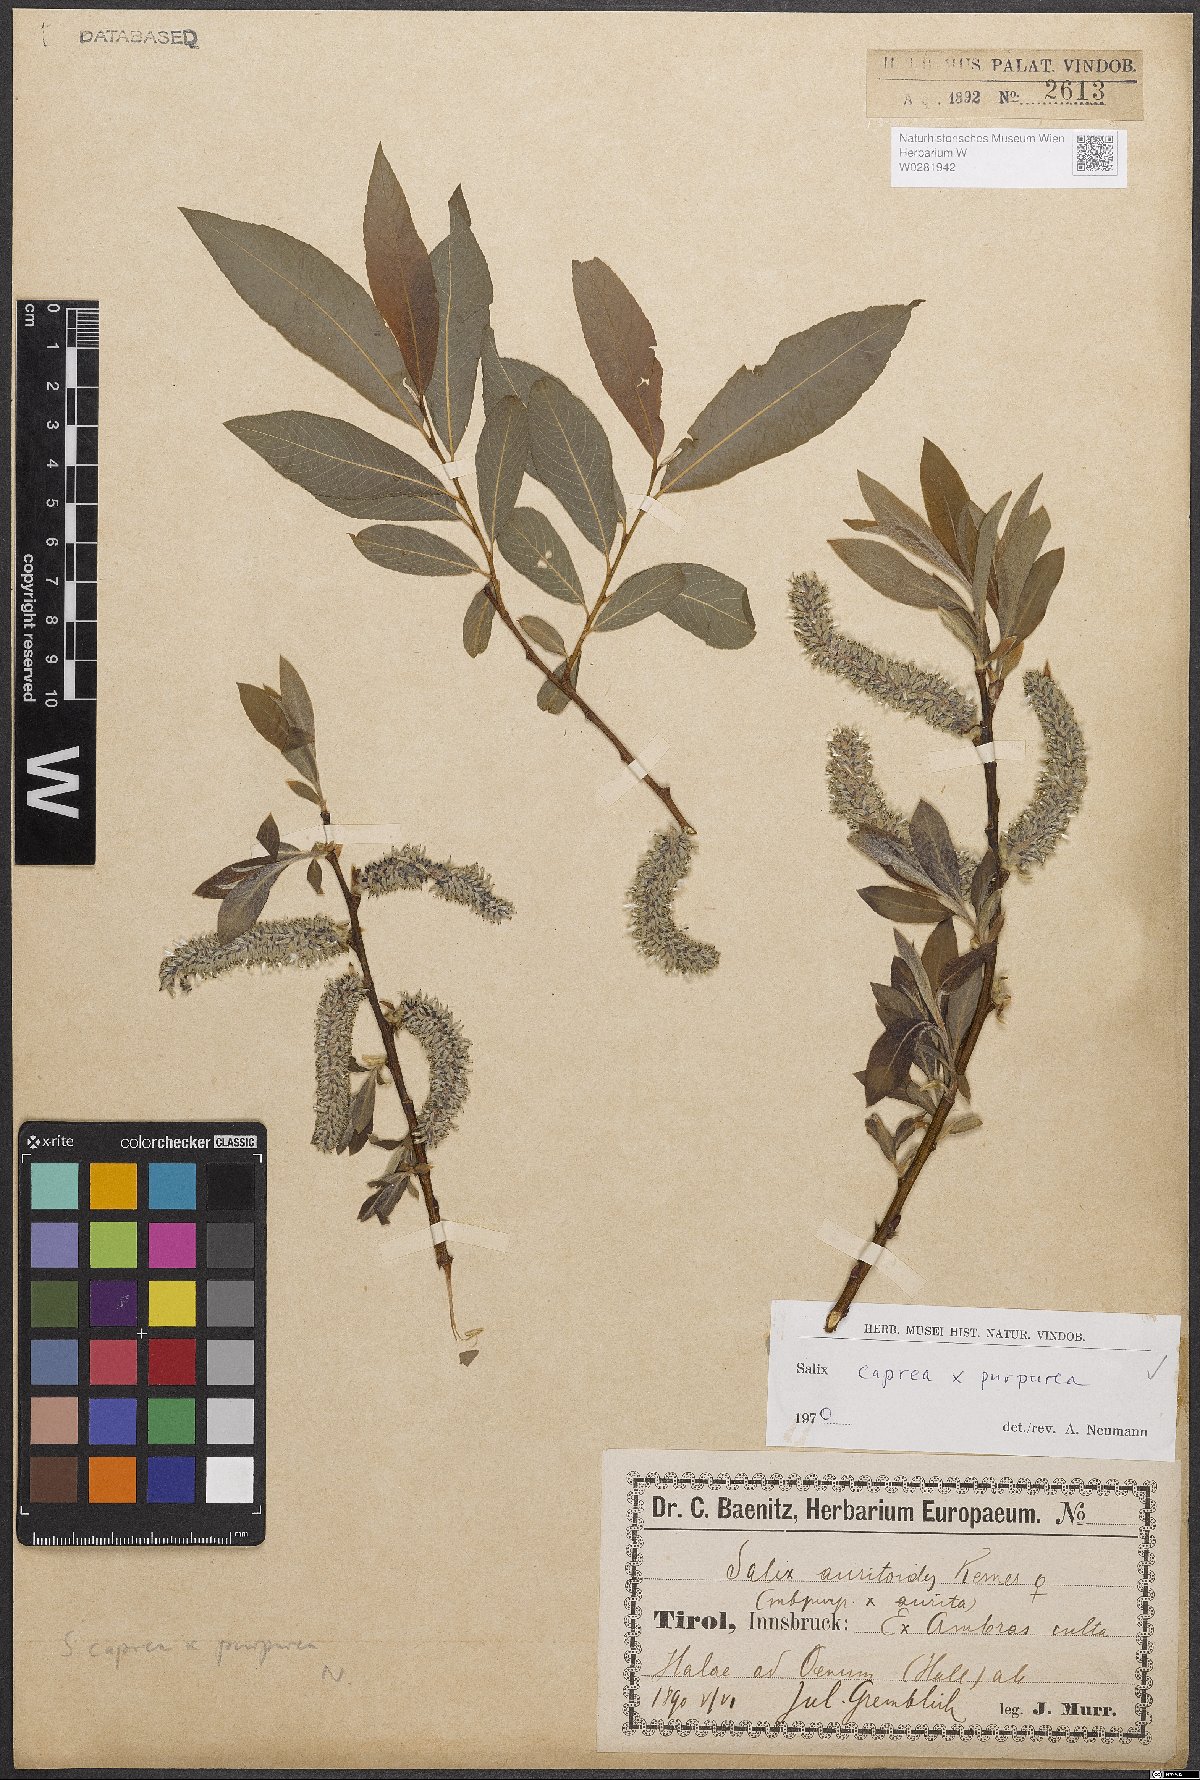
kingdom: Plantae
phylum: Tracheophyta
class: Magnoliopsida
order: Malpighiales
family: Salicaceae
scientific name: Salicaceae
